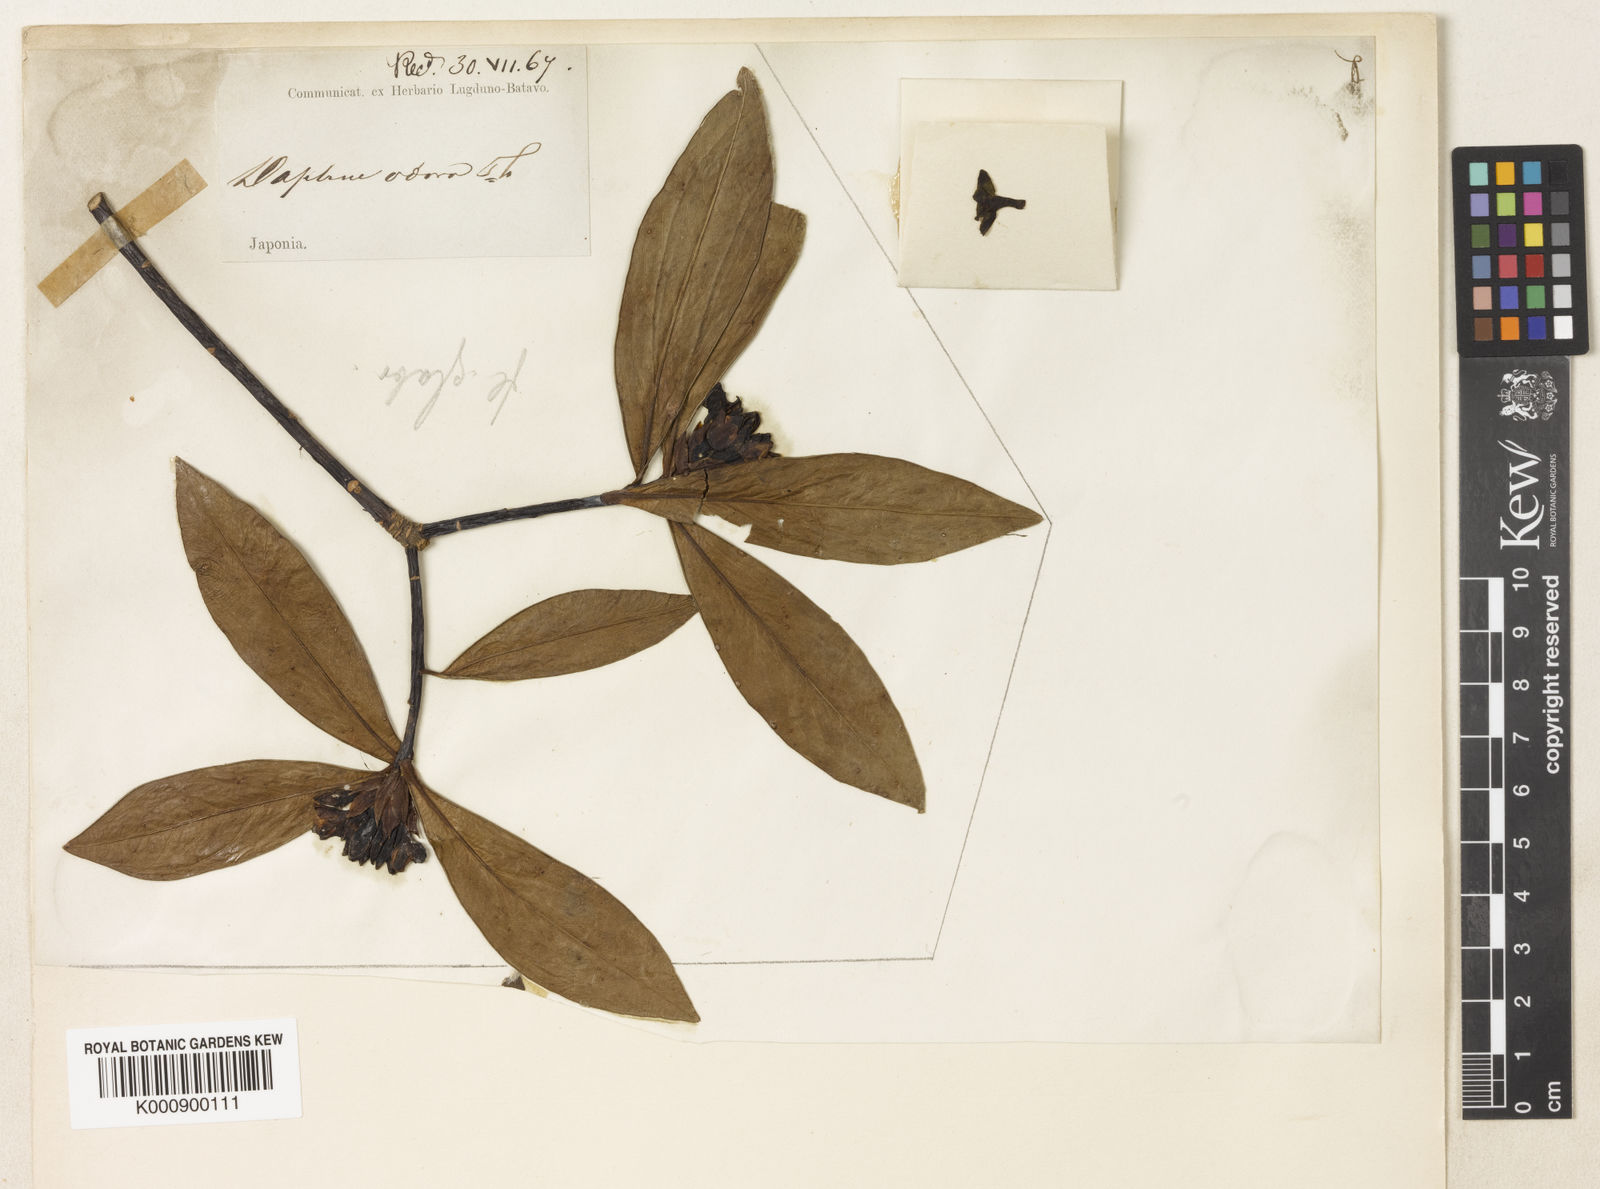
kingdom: Plantae
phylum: Tracheophyta
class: Magnoliopsida
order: Malvales
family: Thymelaeaceae
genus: Daphne
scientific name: Daphne odora
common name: Winter daphne
